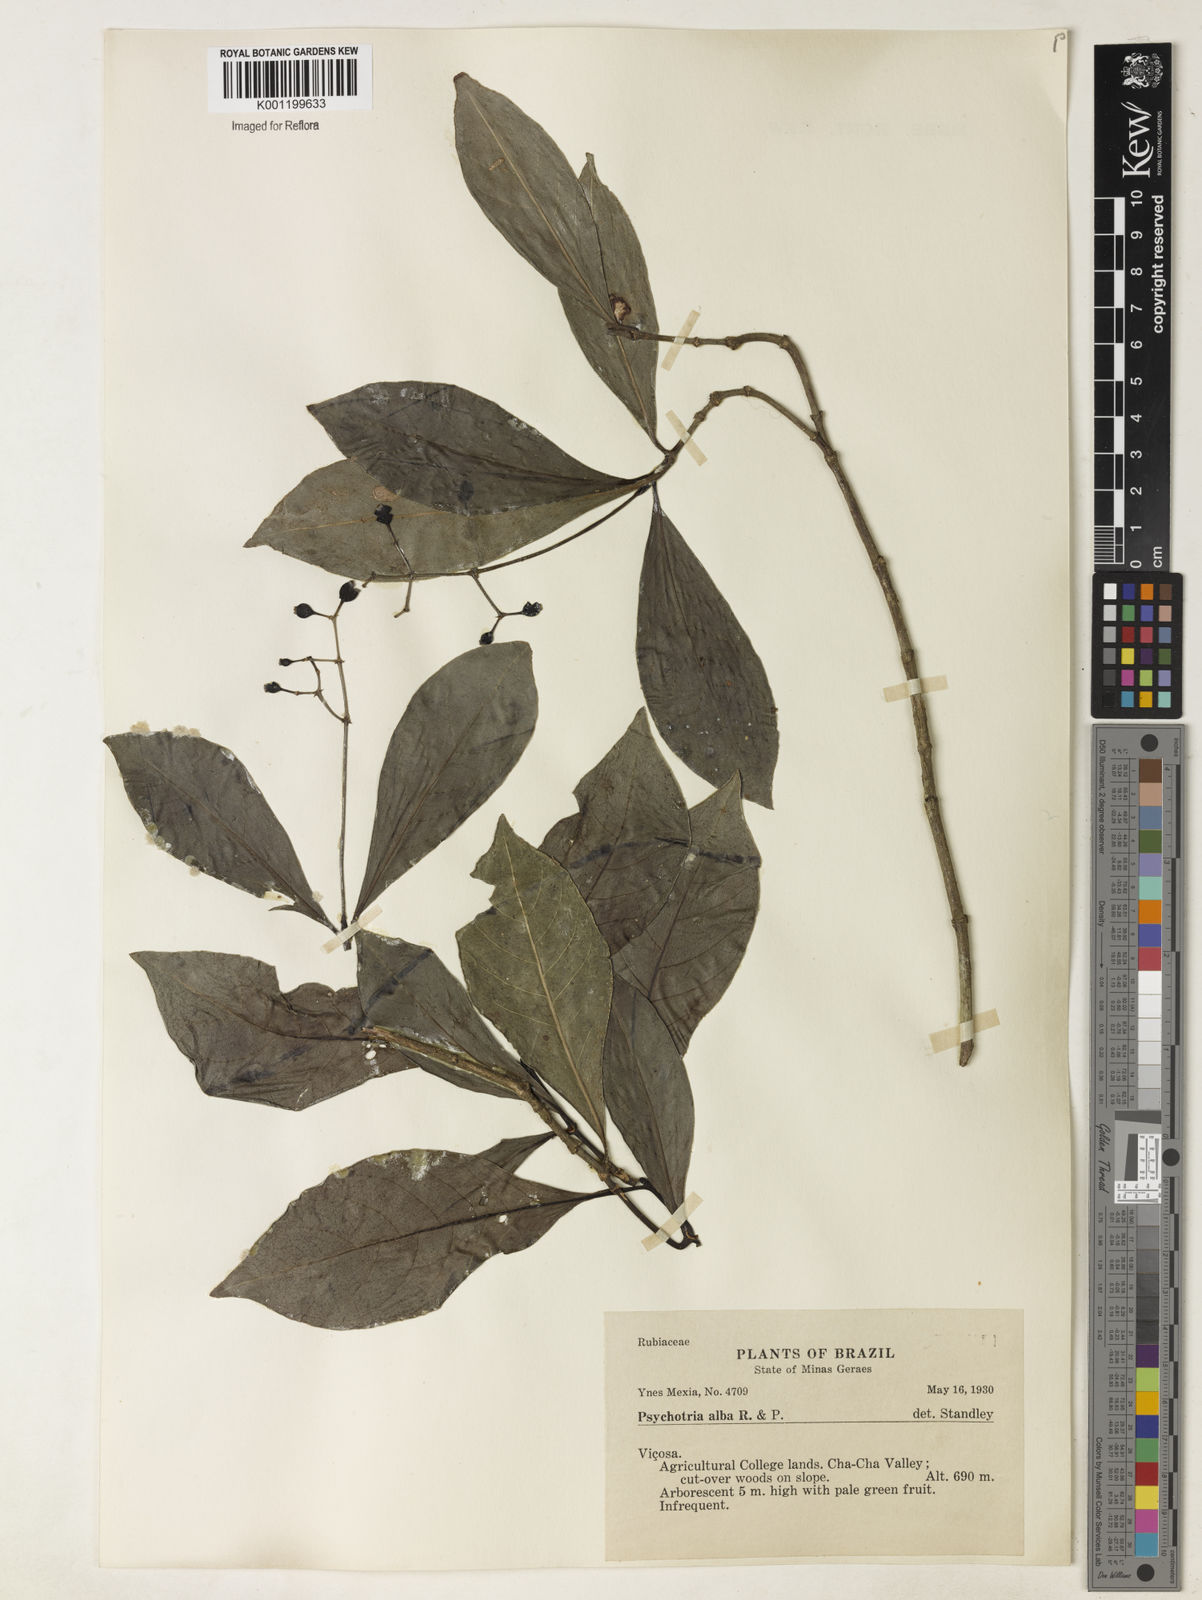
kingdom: Plantae
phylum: Tracheophyta
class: Magnoliopsida
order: Gentianales
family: Rubiaceae
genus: Psychotria
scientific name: Psychotria carthagenensis
